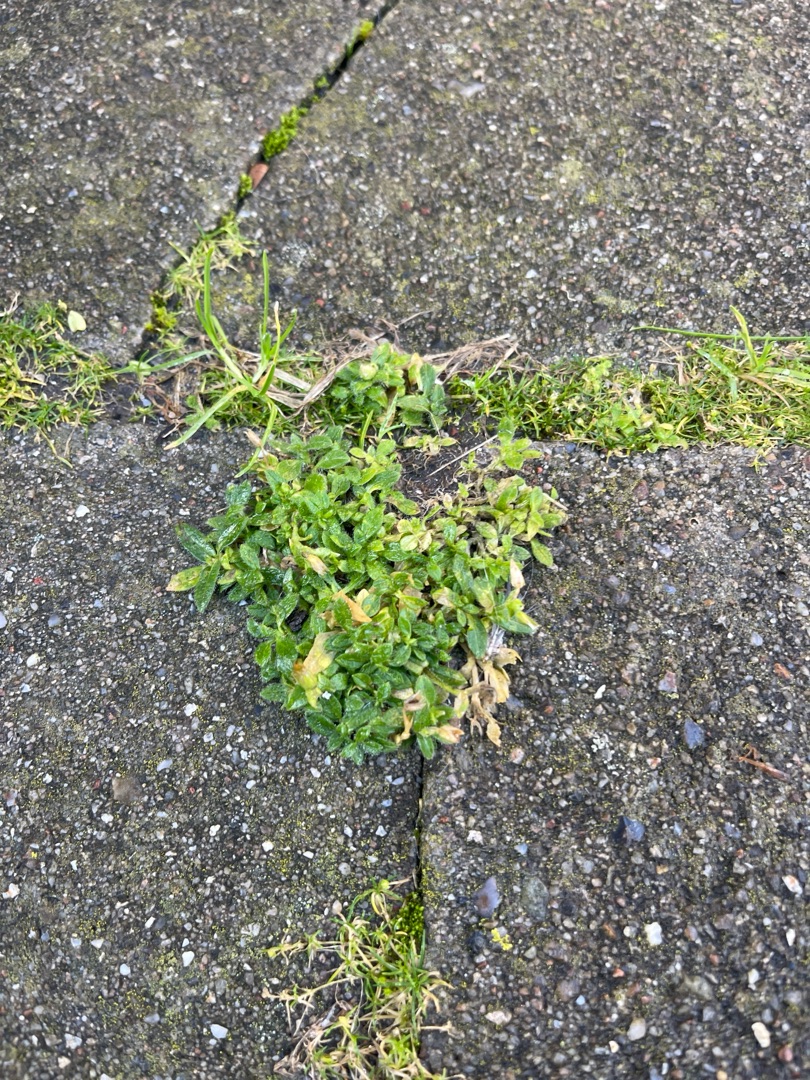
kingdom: Plantae
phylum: Tracheophyta
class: Magnoliopsida
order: Caryophyllales
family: Caryophyllaceae
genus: Cerastium
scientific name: Cerastium holosteoides
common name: Almindelig hønsetarm (varietet)
